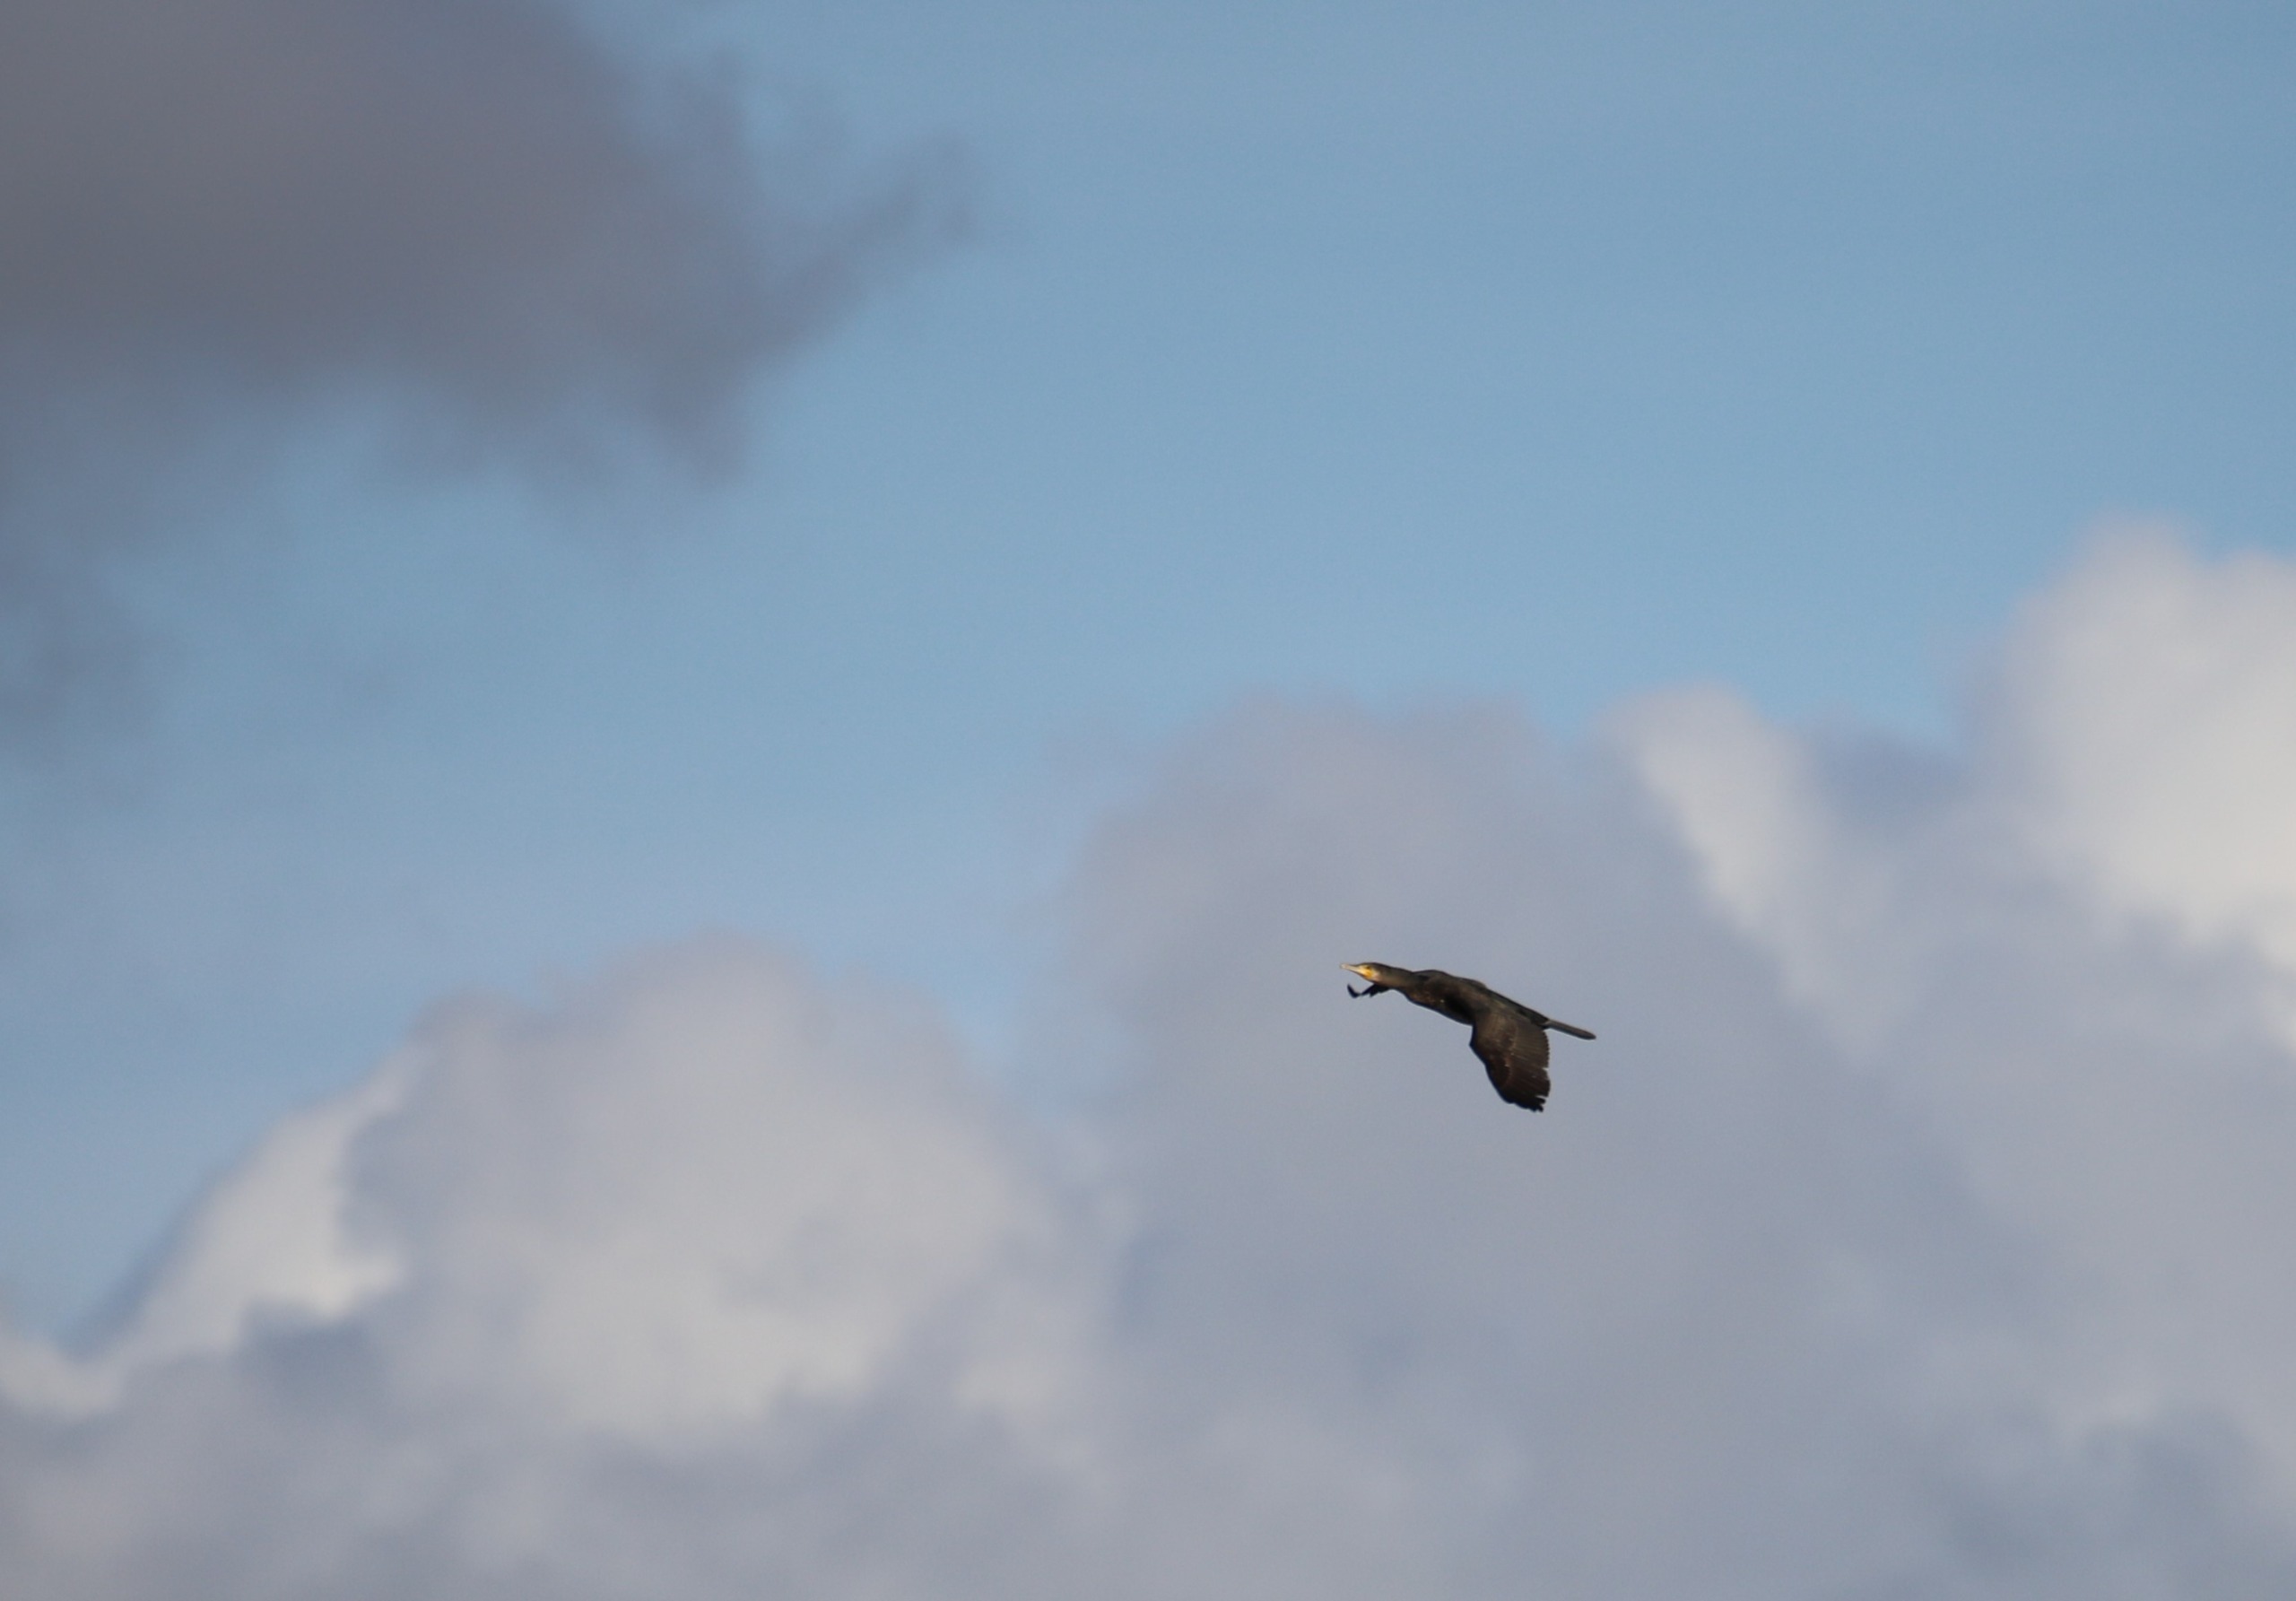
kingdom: Animalia
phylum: Chordata
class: Aves
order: Suliformes
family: Phalacrocoracidae
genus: Phalacrocorax
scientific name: Phalacrocorax carbo
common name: Skarv
